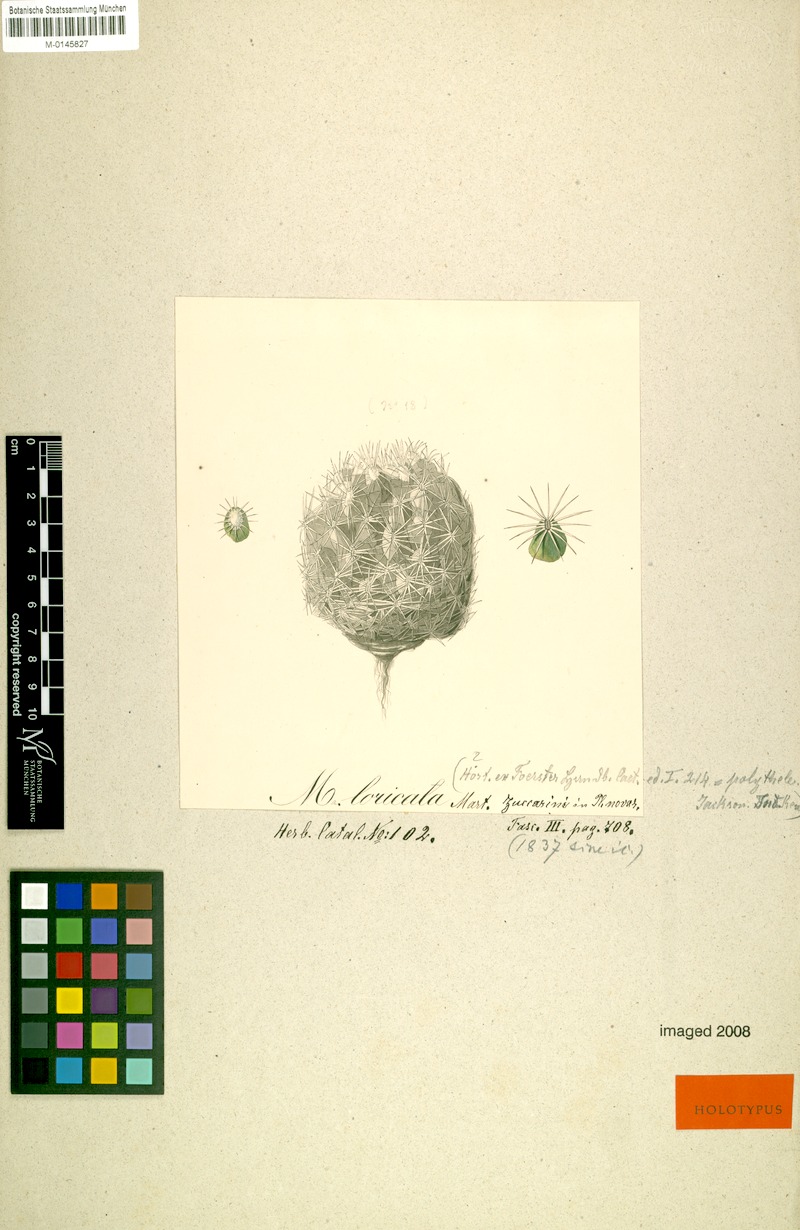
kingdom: Plantae
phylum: Tracheophyta
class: Magnoliopsida
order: Caryophyllales
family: Cactaceae
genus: Coryphantha
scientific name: Coryphantha pallida
